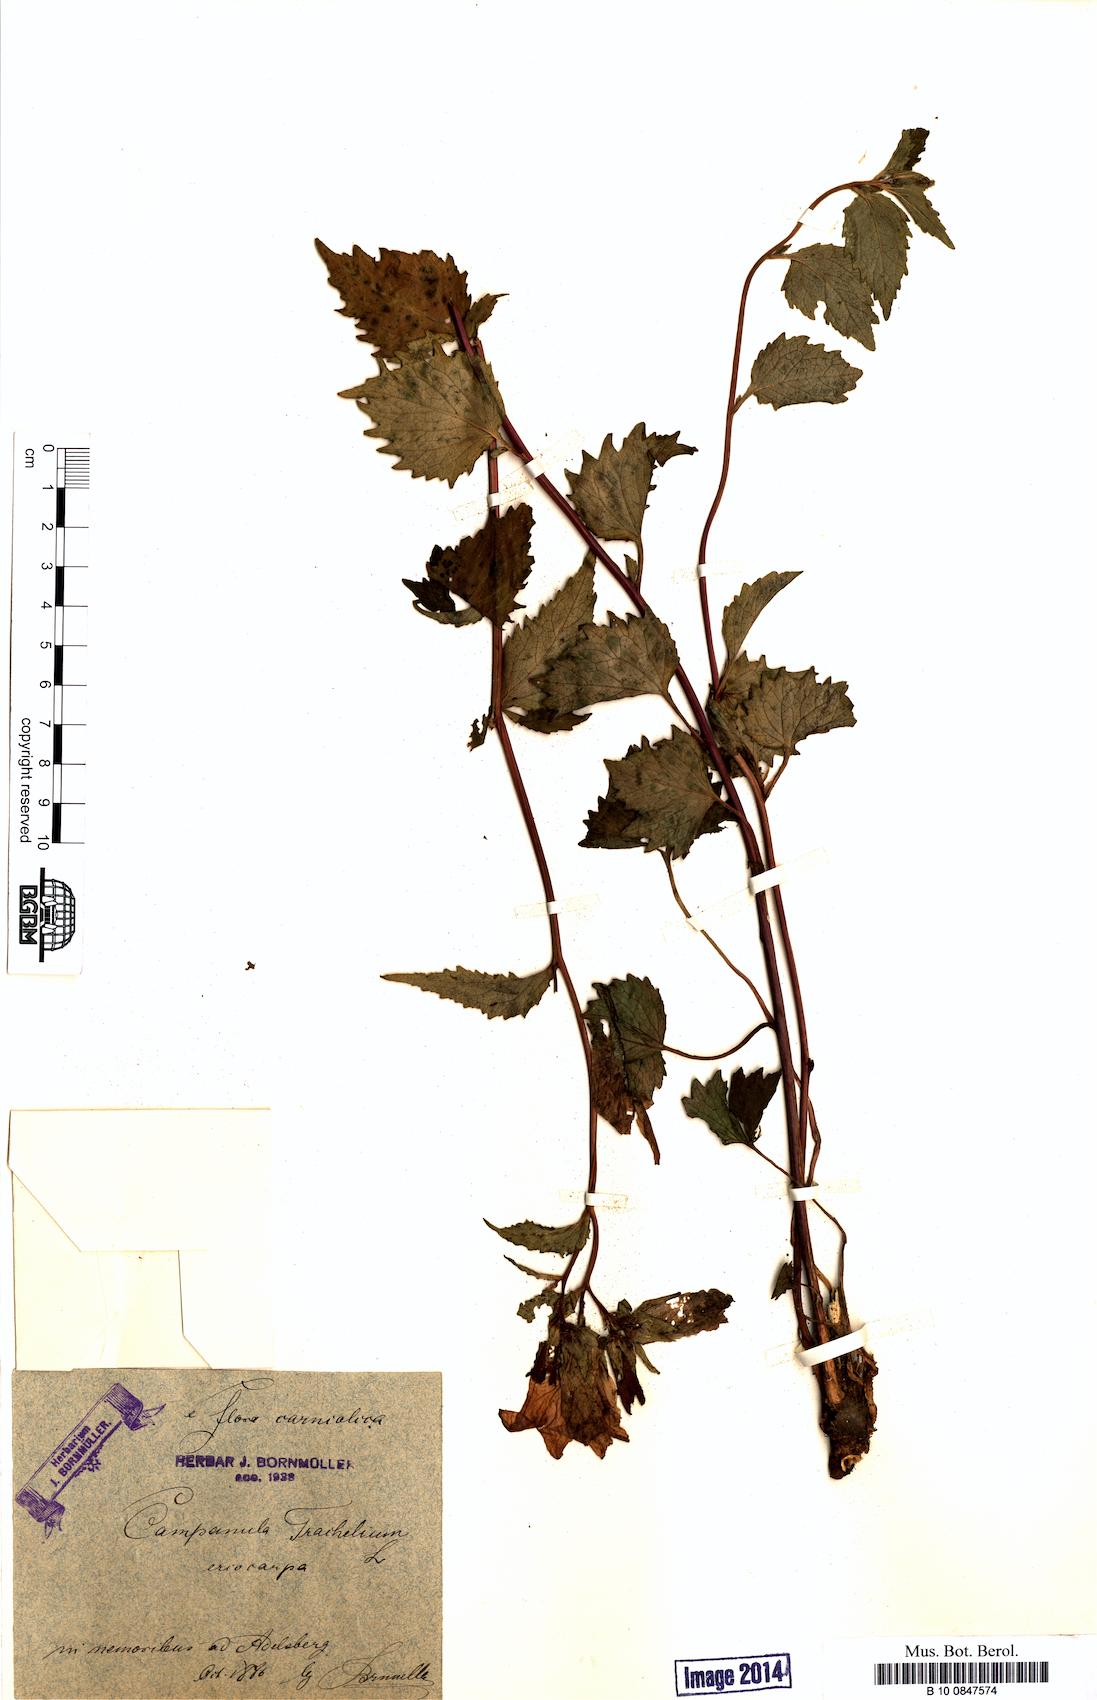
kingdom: Plantae
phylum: Tracheophyta
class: Magnoliopsida
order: Asterales
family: Campanulaceae
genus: Campanula
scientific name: Campanula trachelium
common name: Nettle-leaved bellflower
